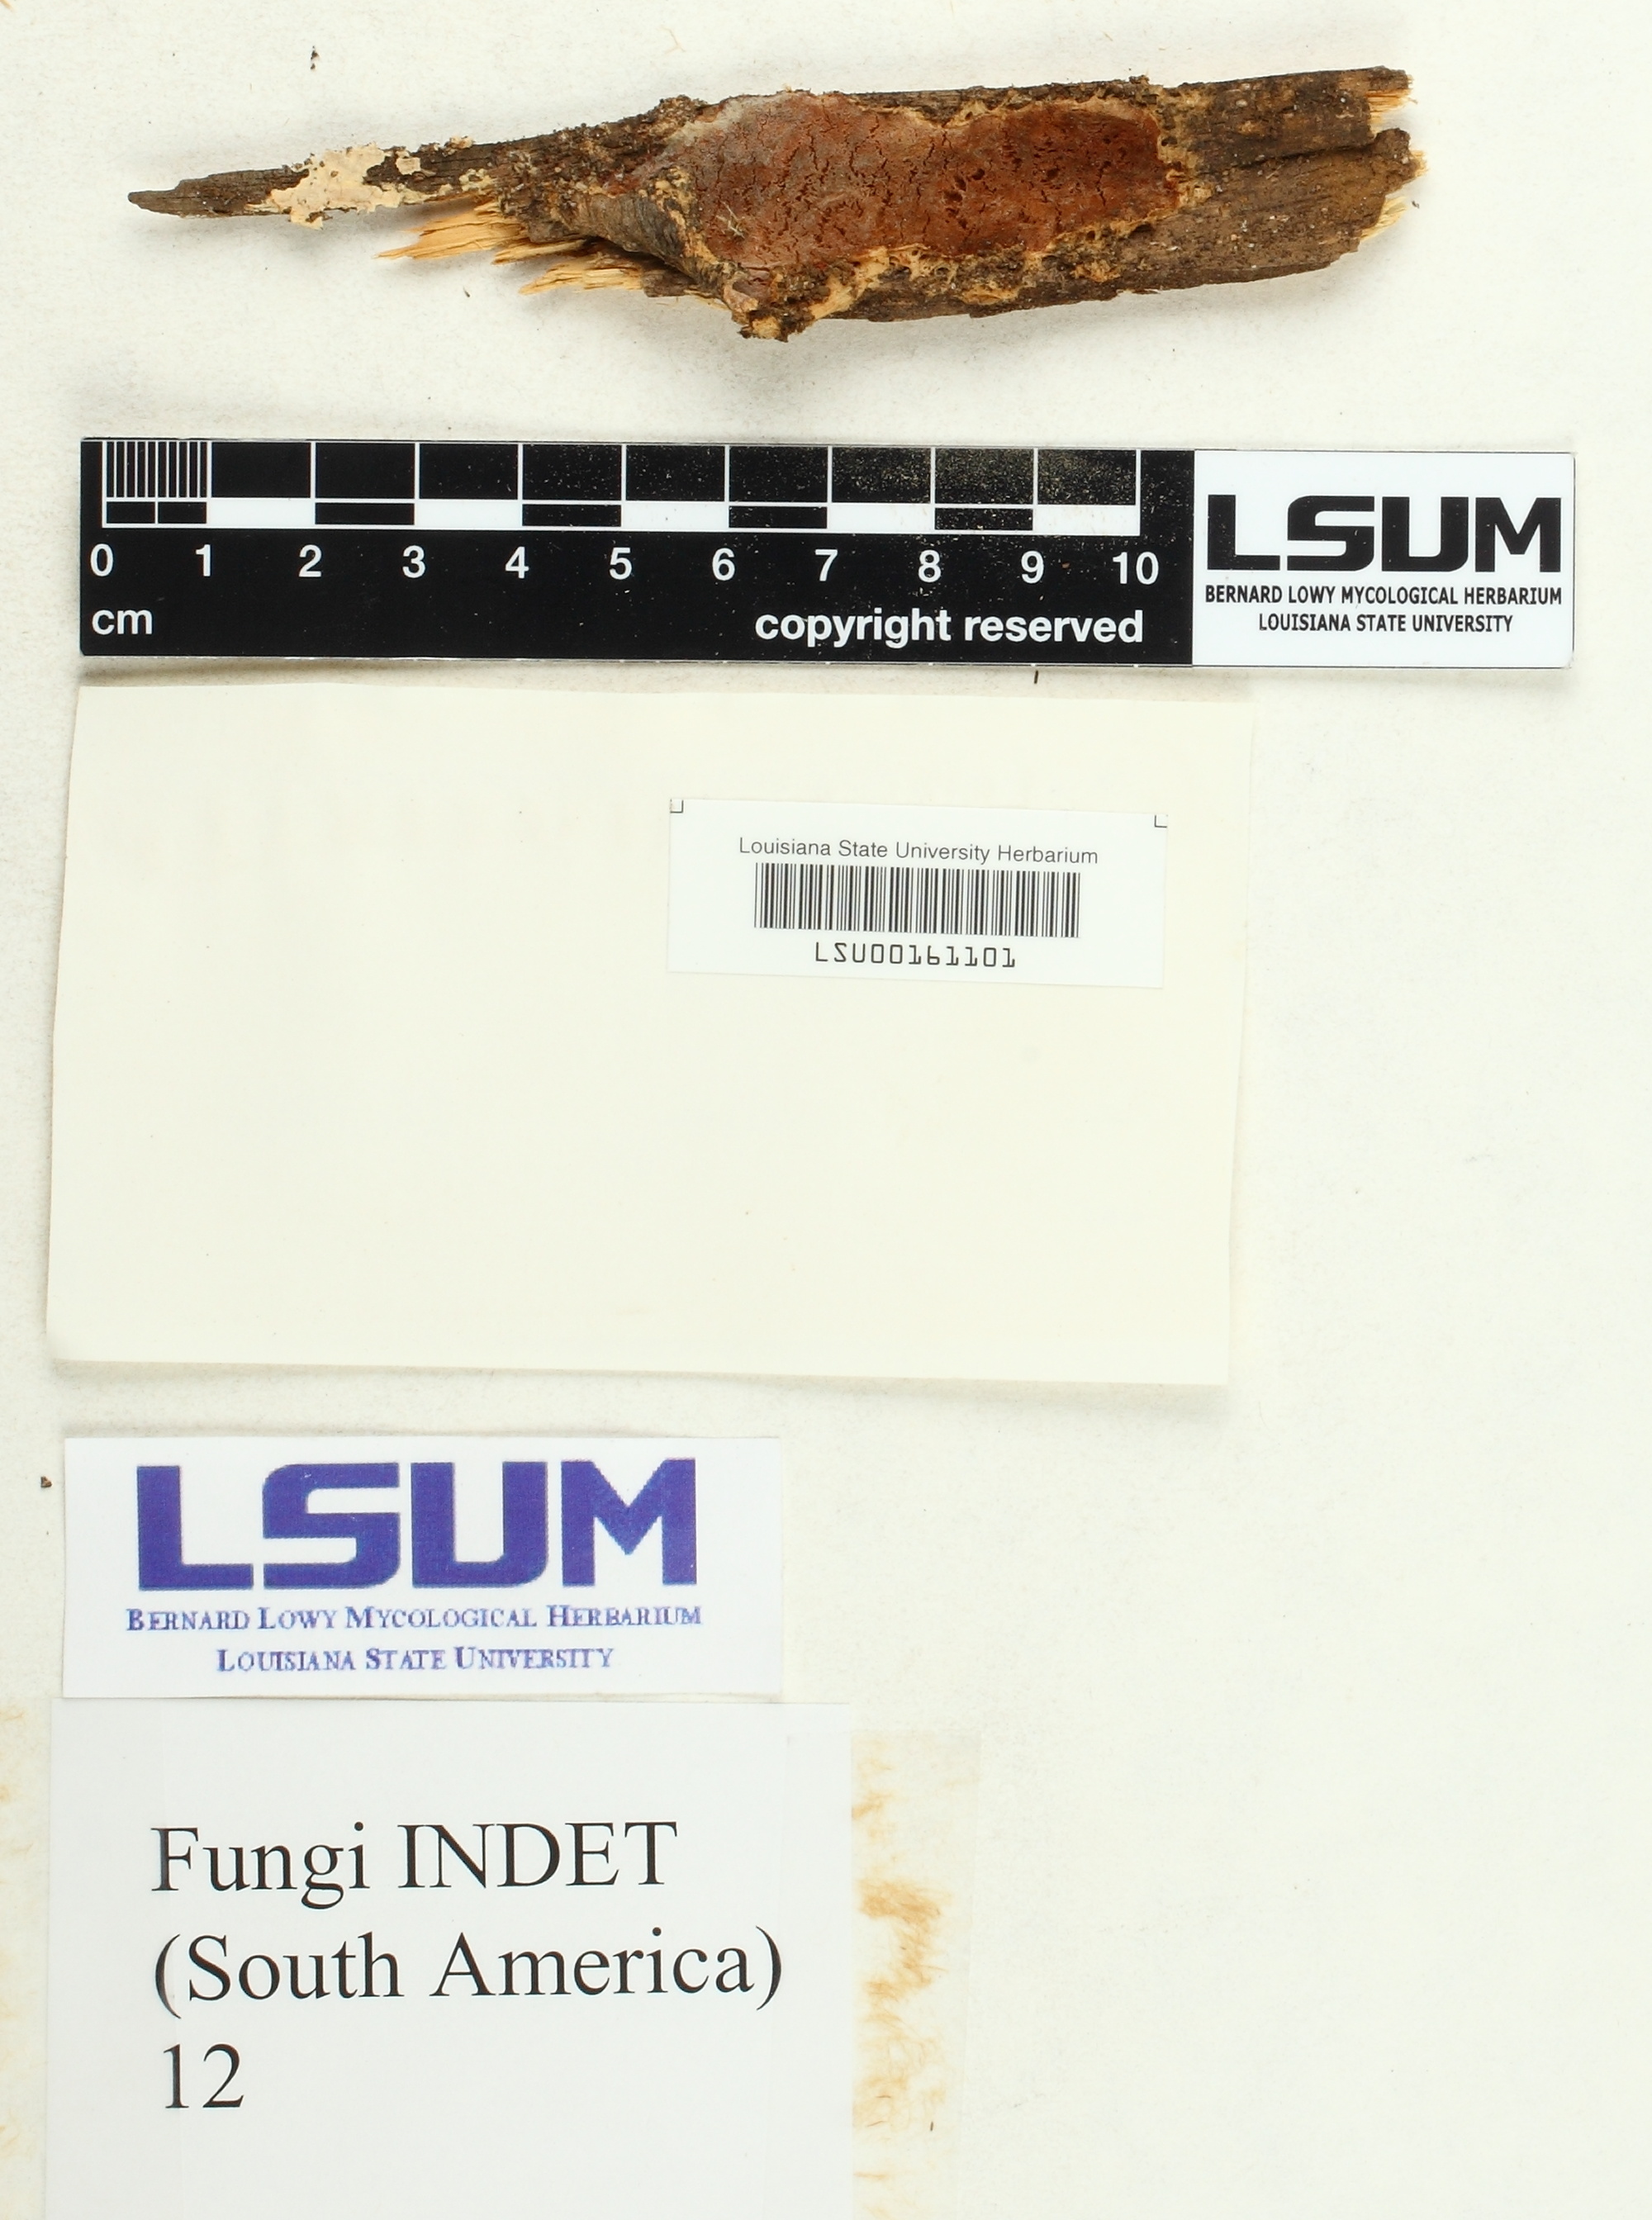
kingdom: Fungi
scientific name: Fungi
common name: Fungi
